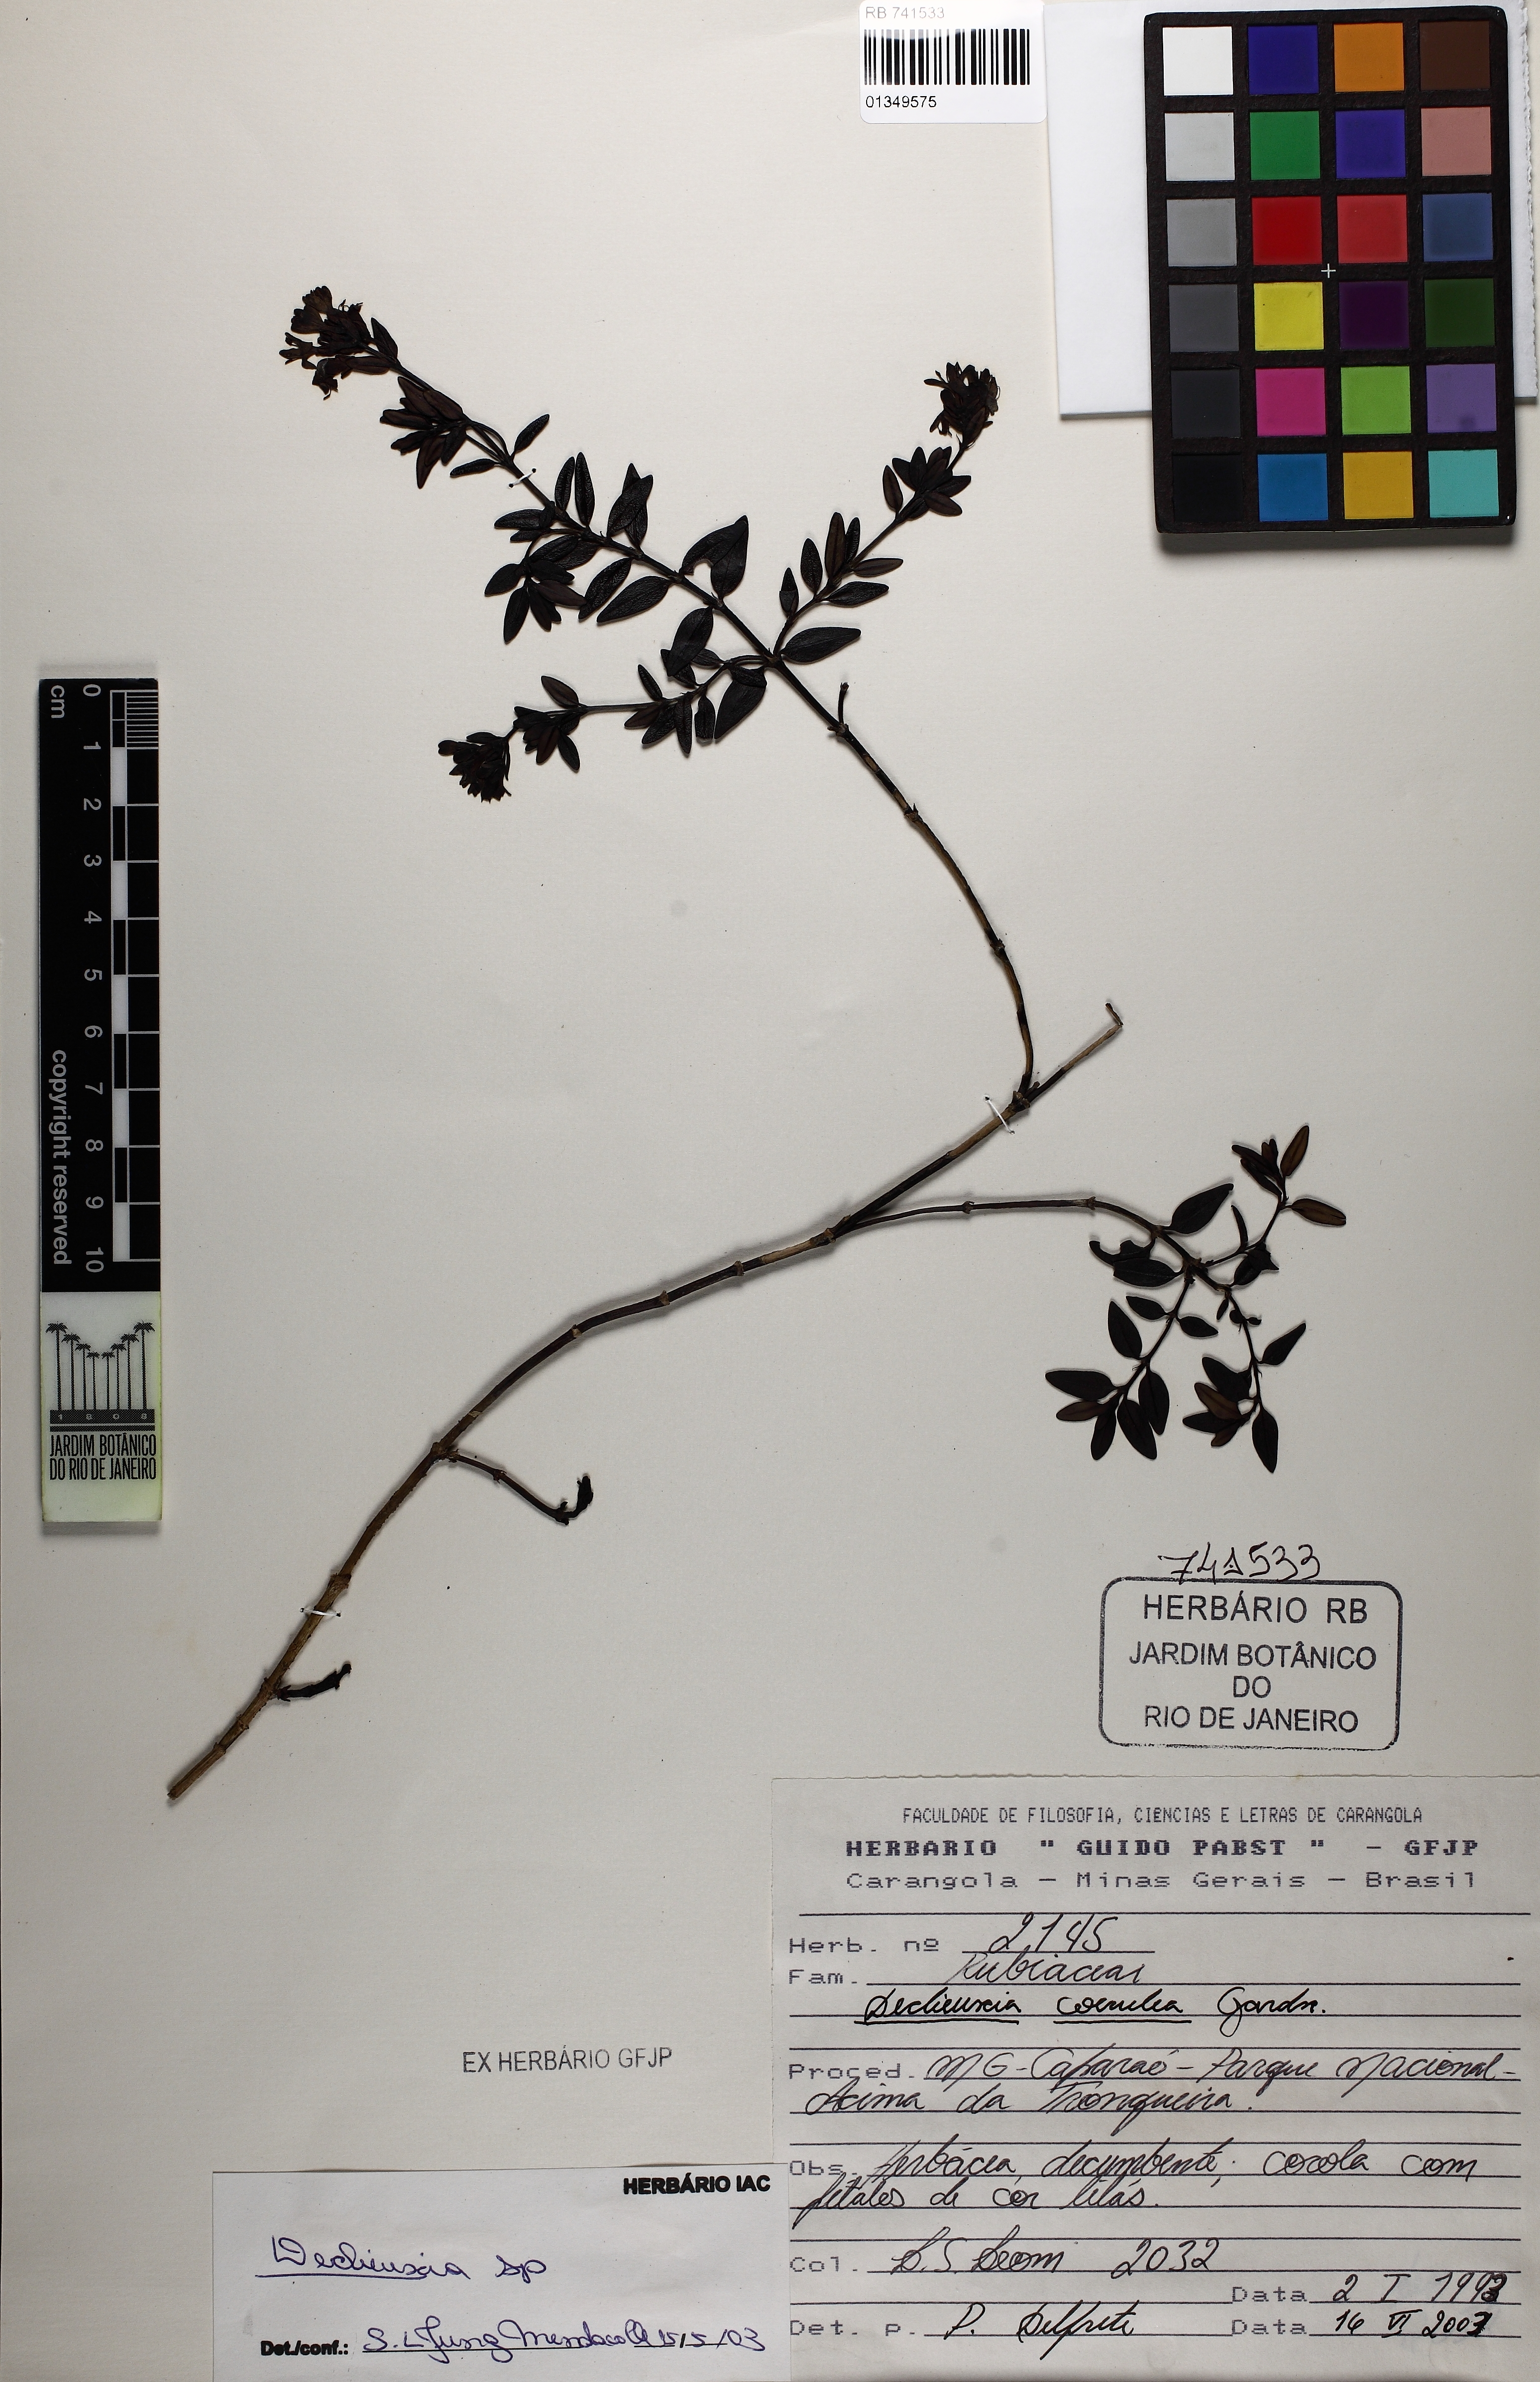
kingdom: Plantae
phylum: Tracheophyta
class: Magnoliopsida
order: Gentianales
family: Rubiaceae
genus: Declieuxia
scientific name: Declieuxia coerulea
